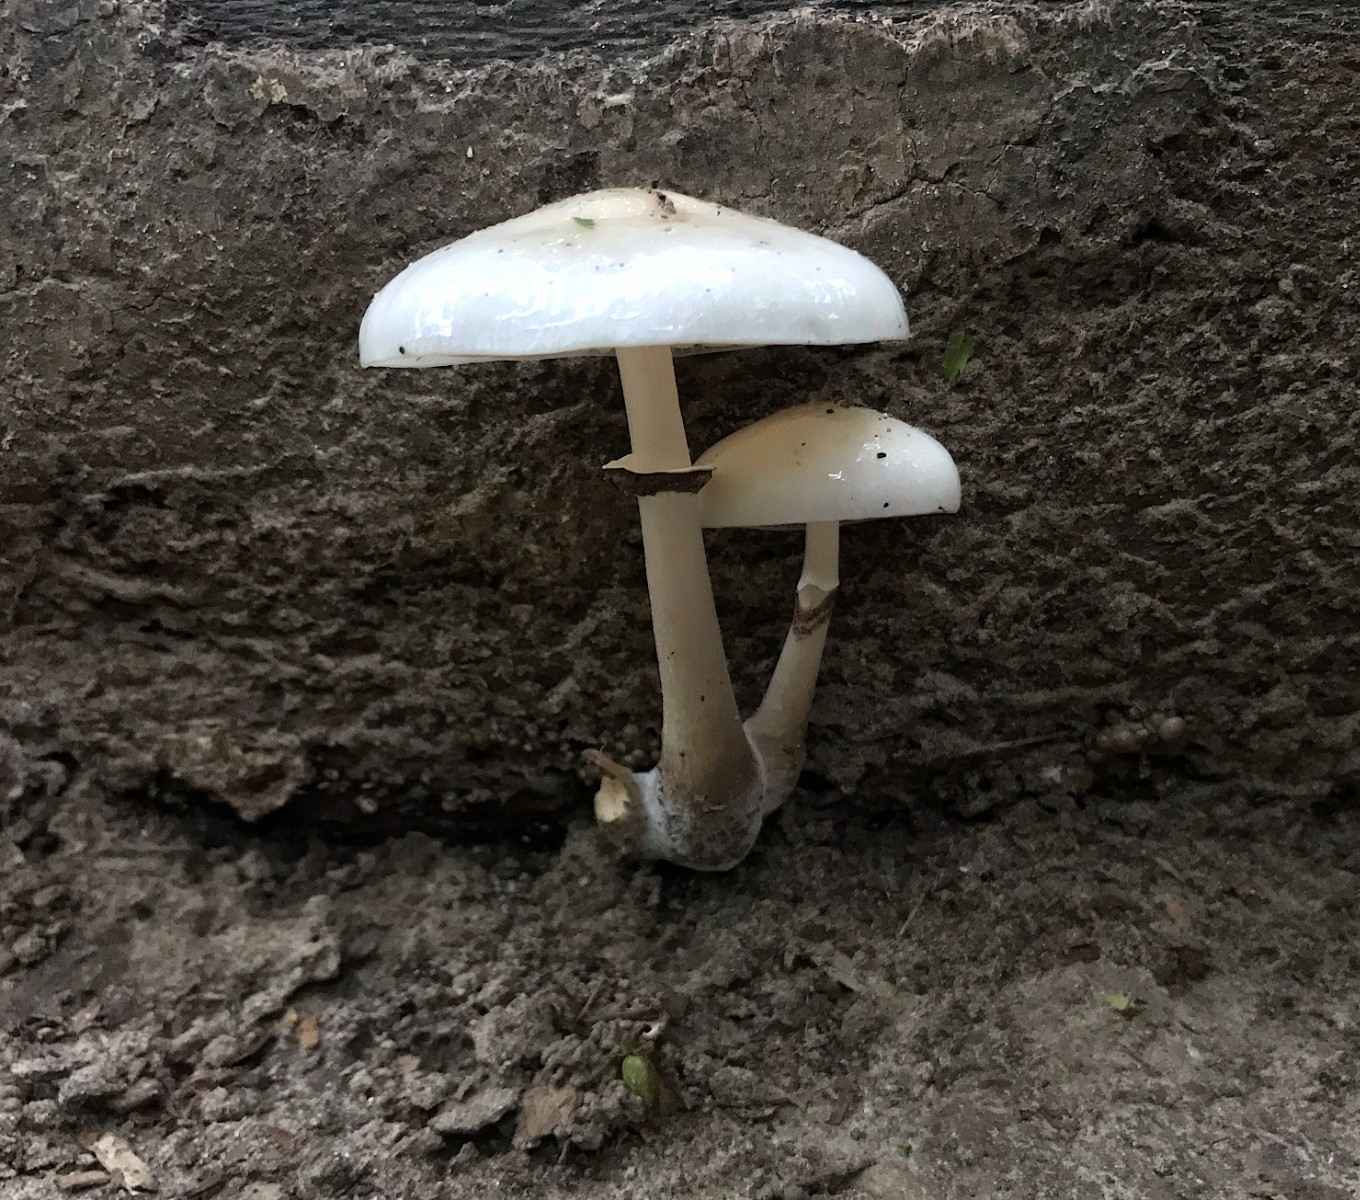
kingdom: Fungi
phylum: Basidiomycota
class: Agaricomycetes
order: Agaricales
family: Physalacriaceae
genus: Mucidula
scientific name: Mucidula mucida
